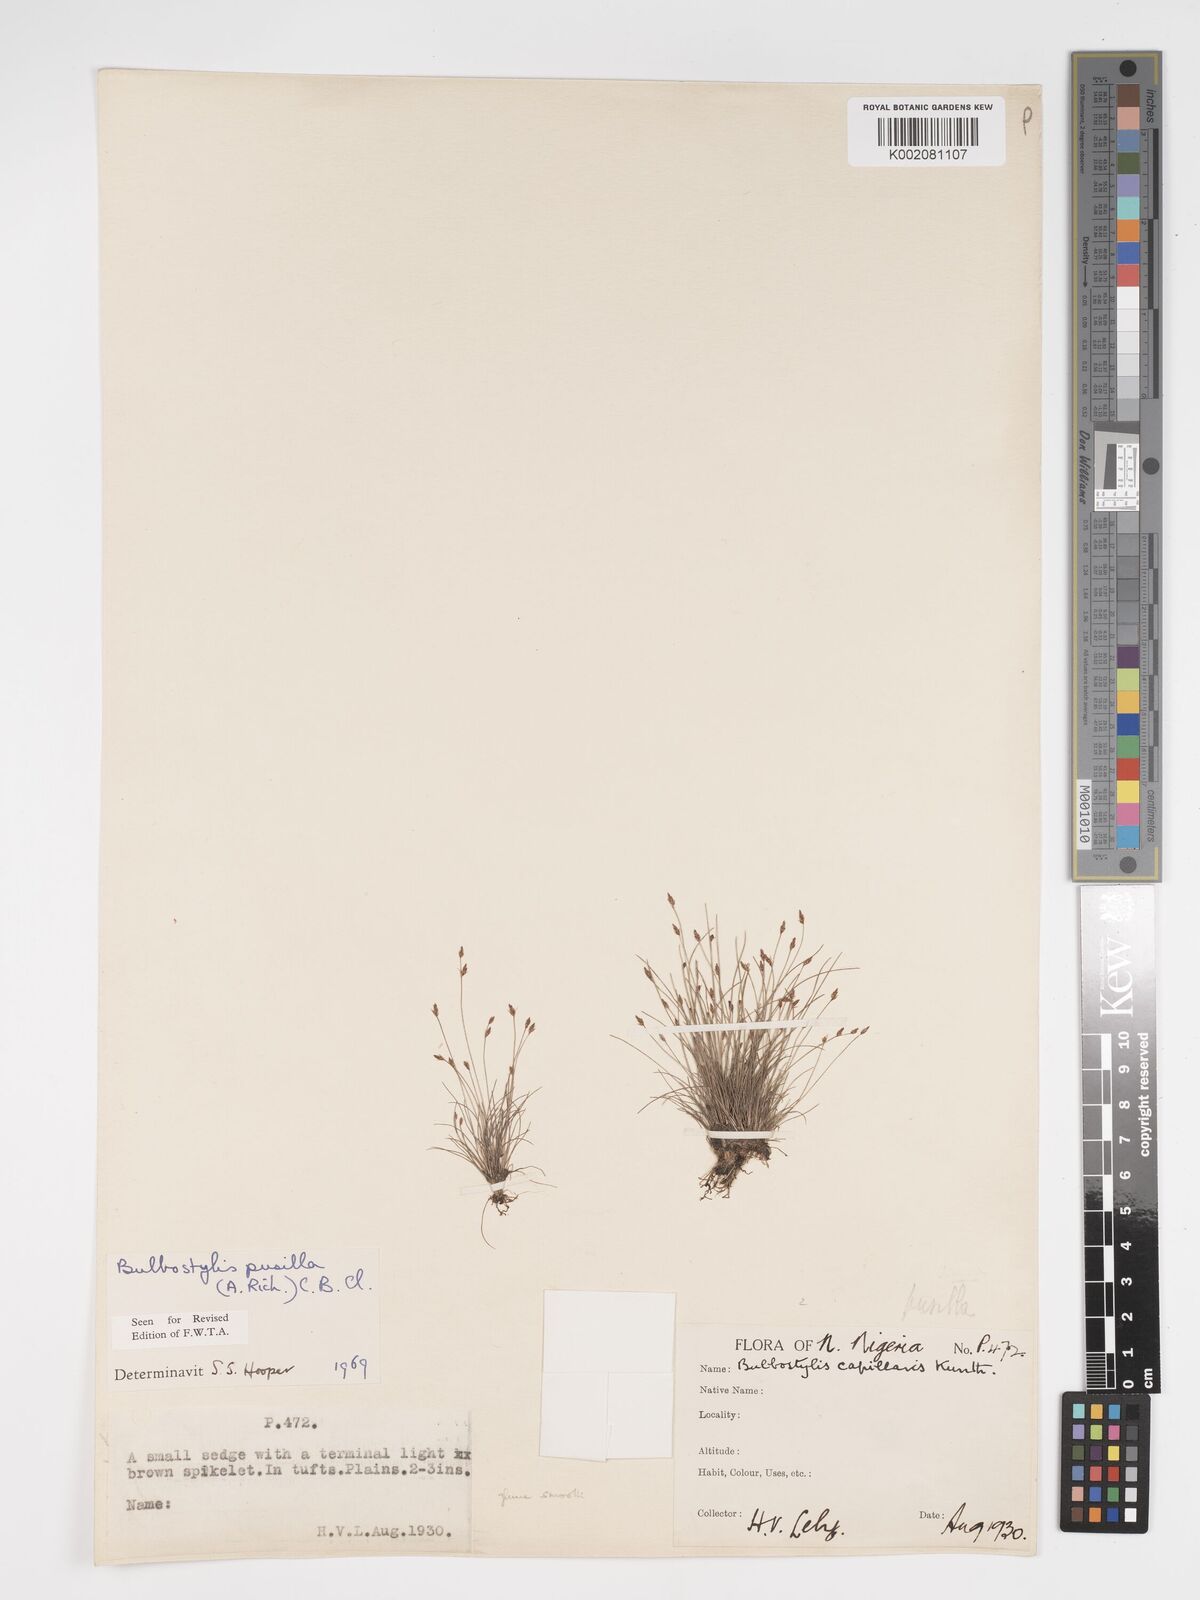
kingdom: Plantae
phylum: Tracheophyta
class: Liliopsida
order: Poales
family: Cyperaceae
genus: Bulbostylis
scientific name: Bulbostylis pusilla
